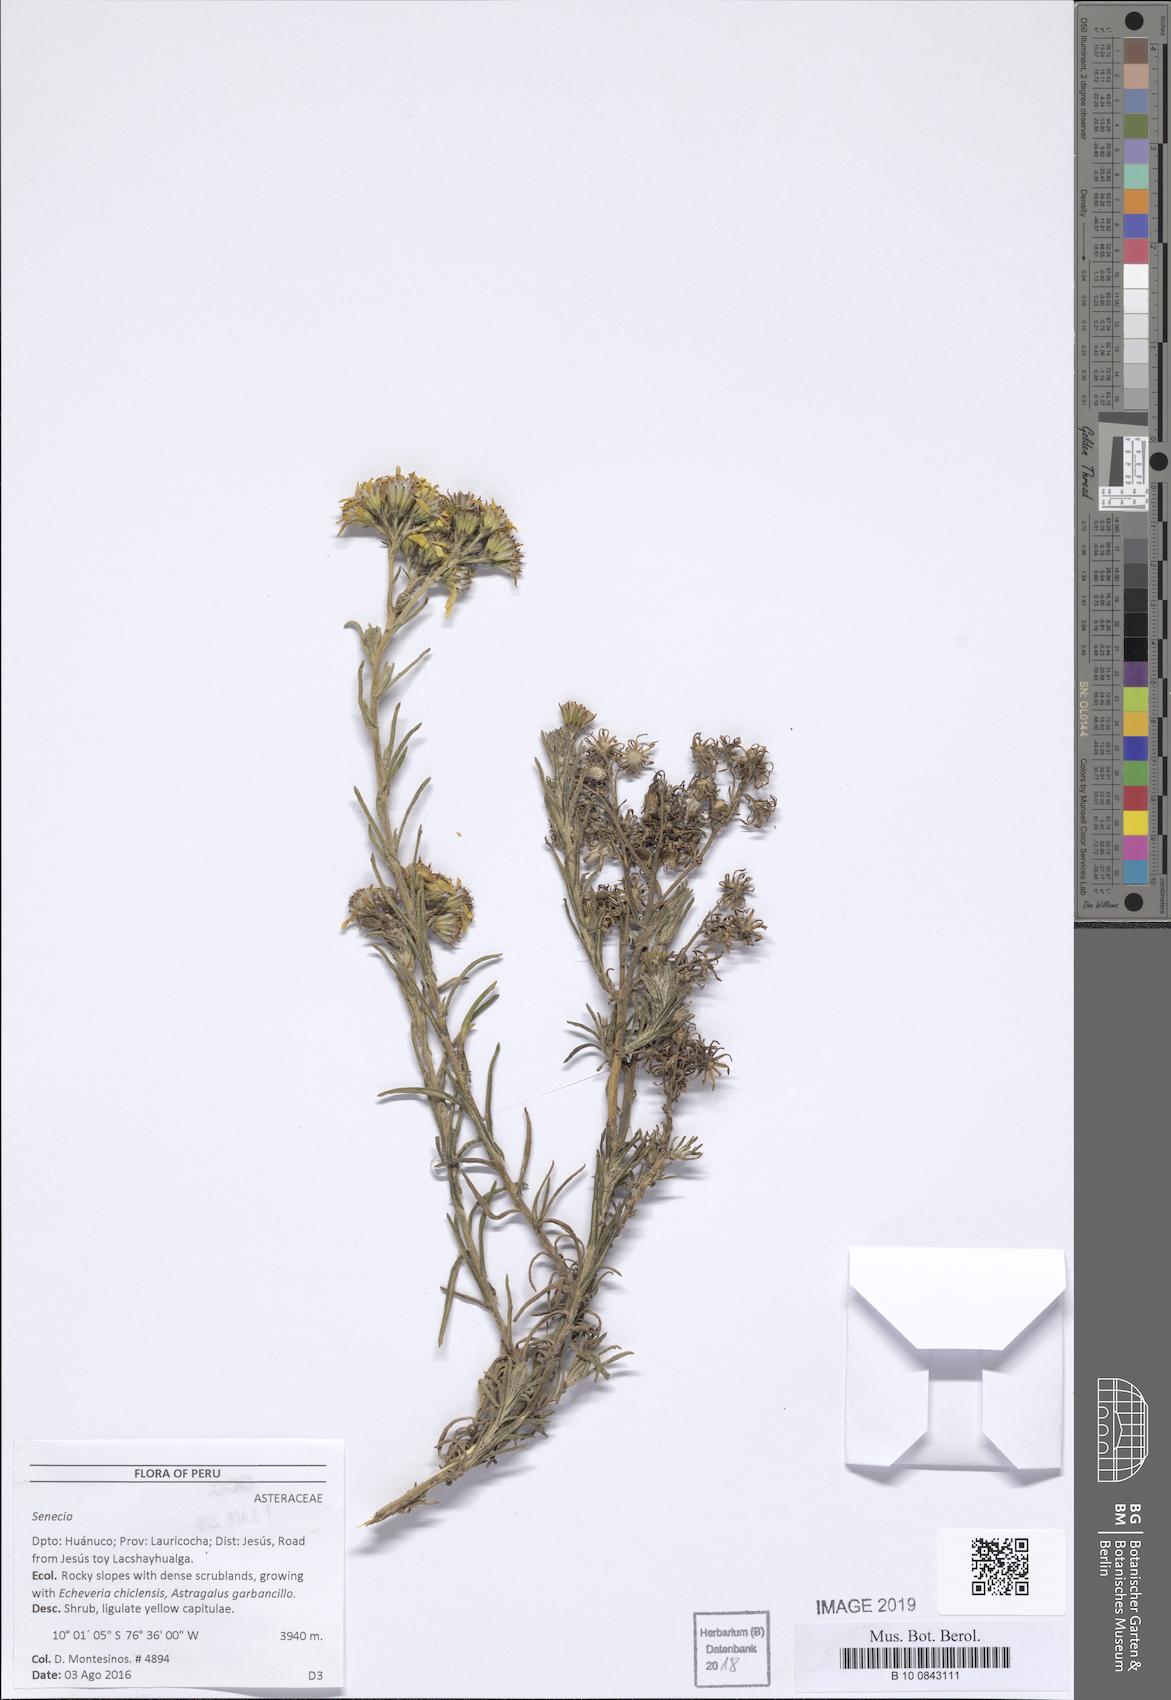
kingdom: Plantae
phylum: Tracheophyta
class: Magnoliopsida
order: Asterales
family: Asteraceae
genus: Senecio
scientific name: Senecio ferreyrae
